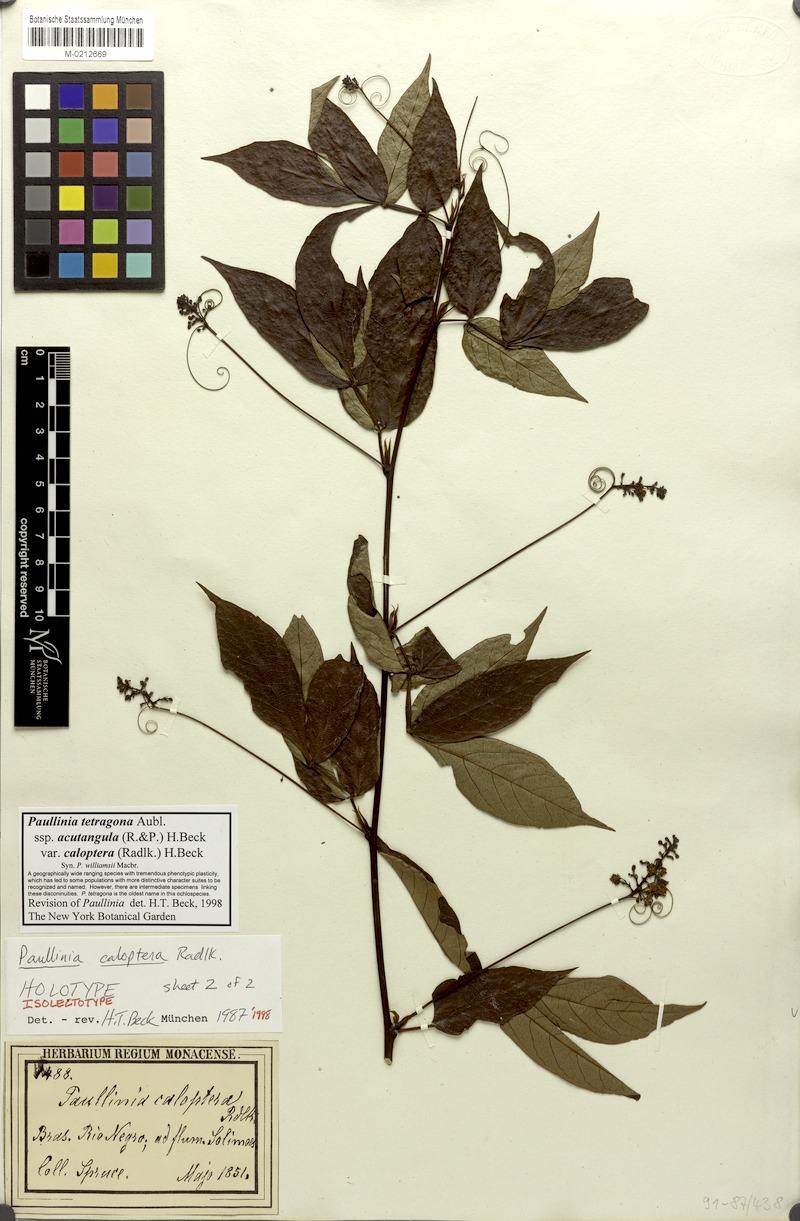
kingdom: Plantae
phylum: Tracheophyta
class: Magnoliopsida
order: Sapindales
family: Sapindaceae
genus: Paullinia
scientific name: Paullinia tetragona
